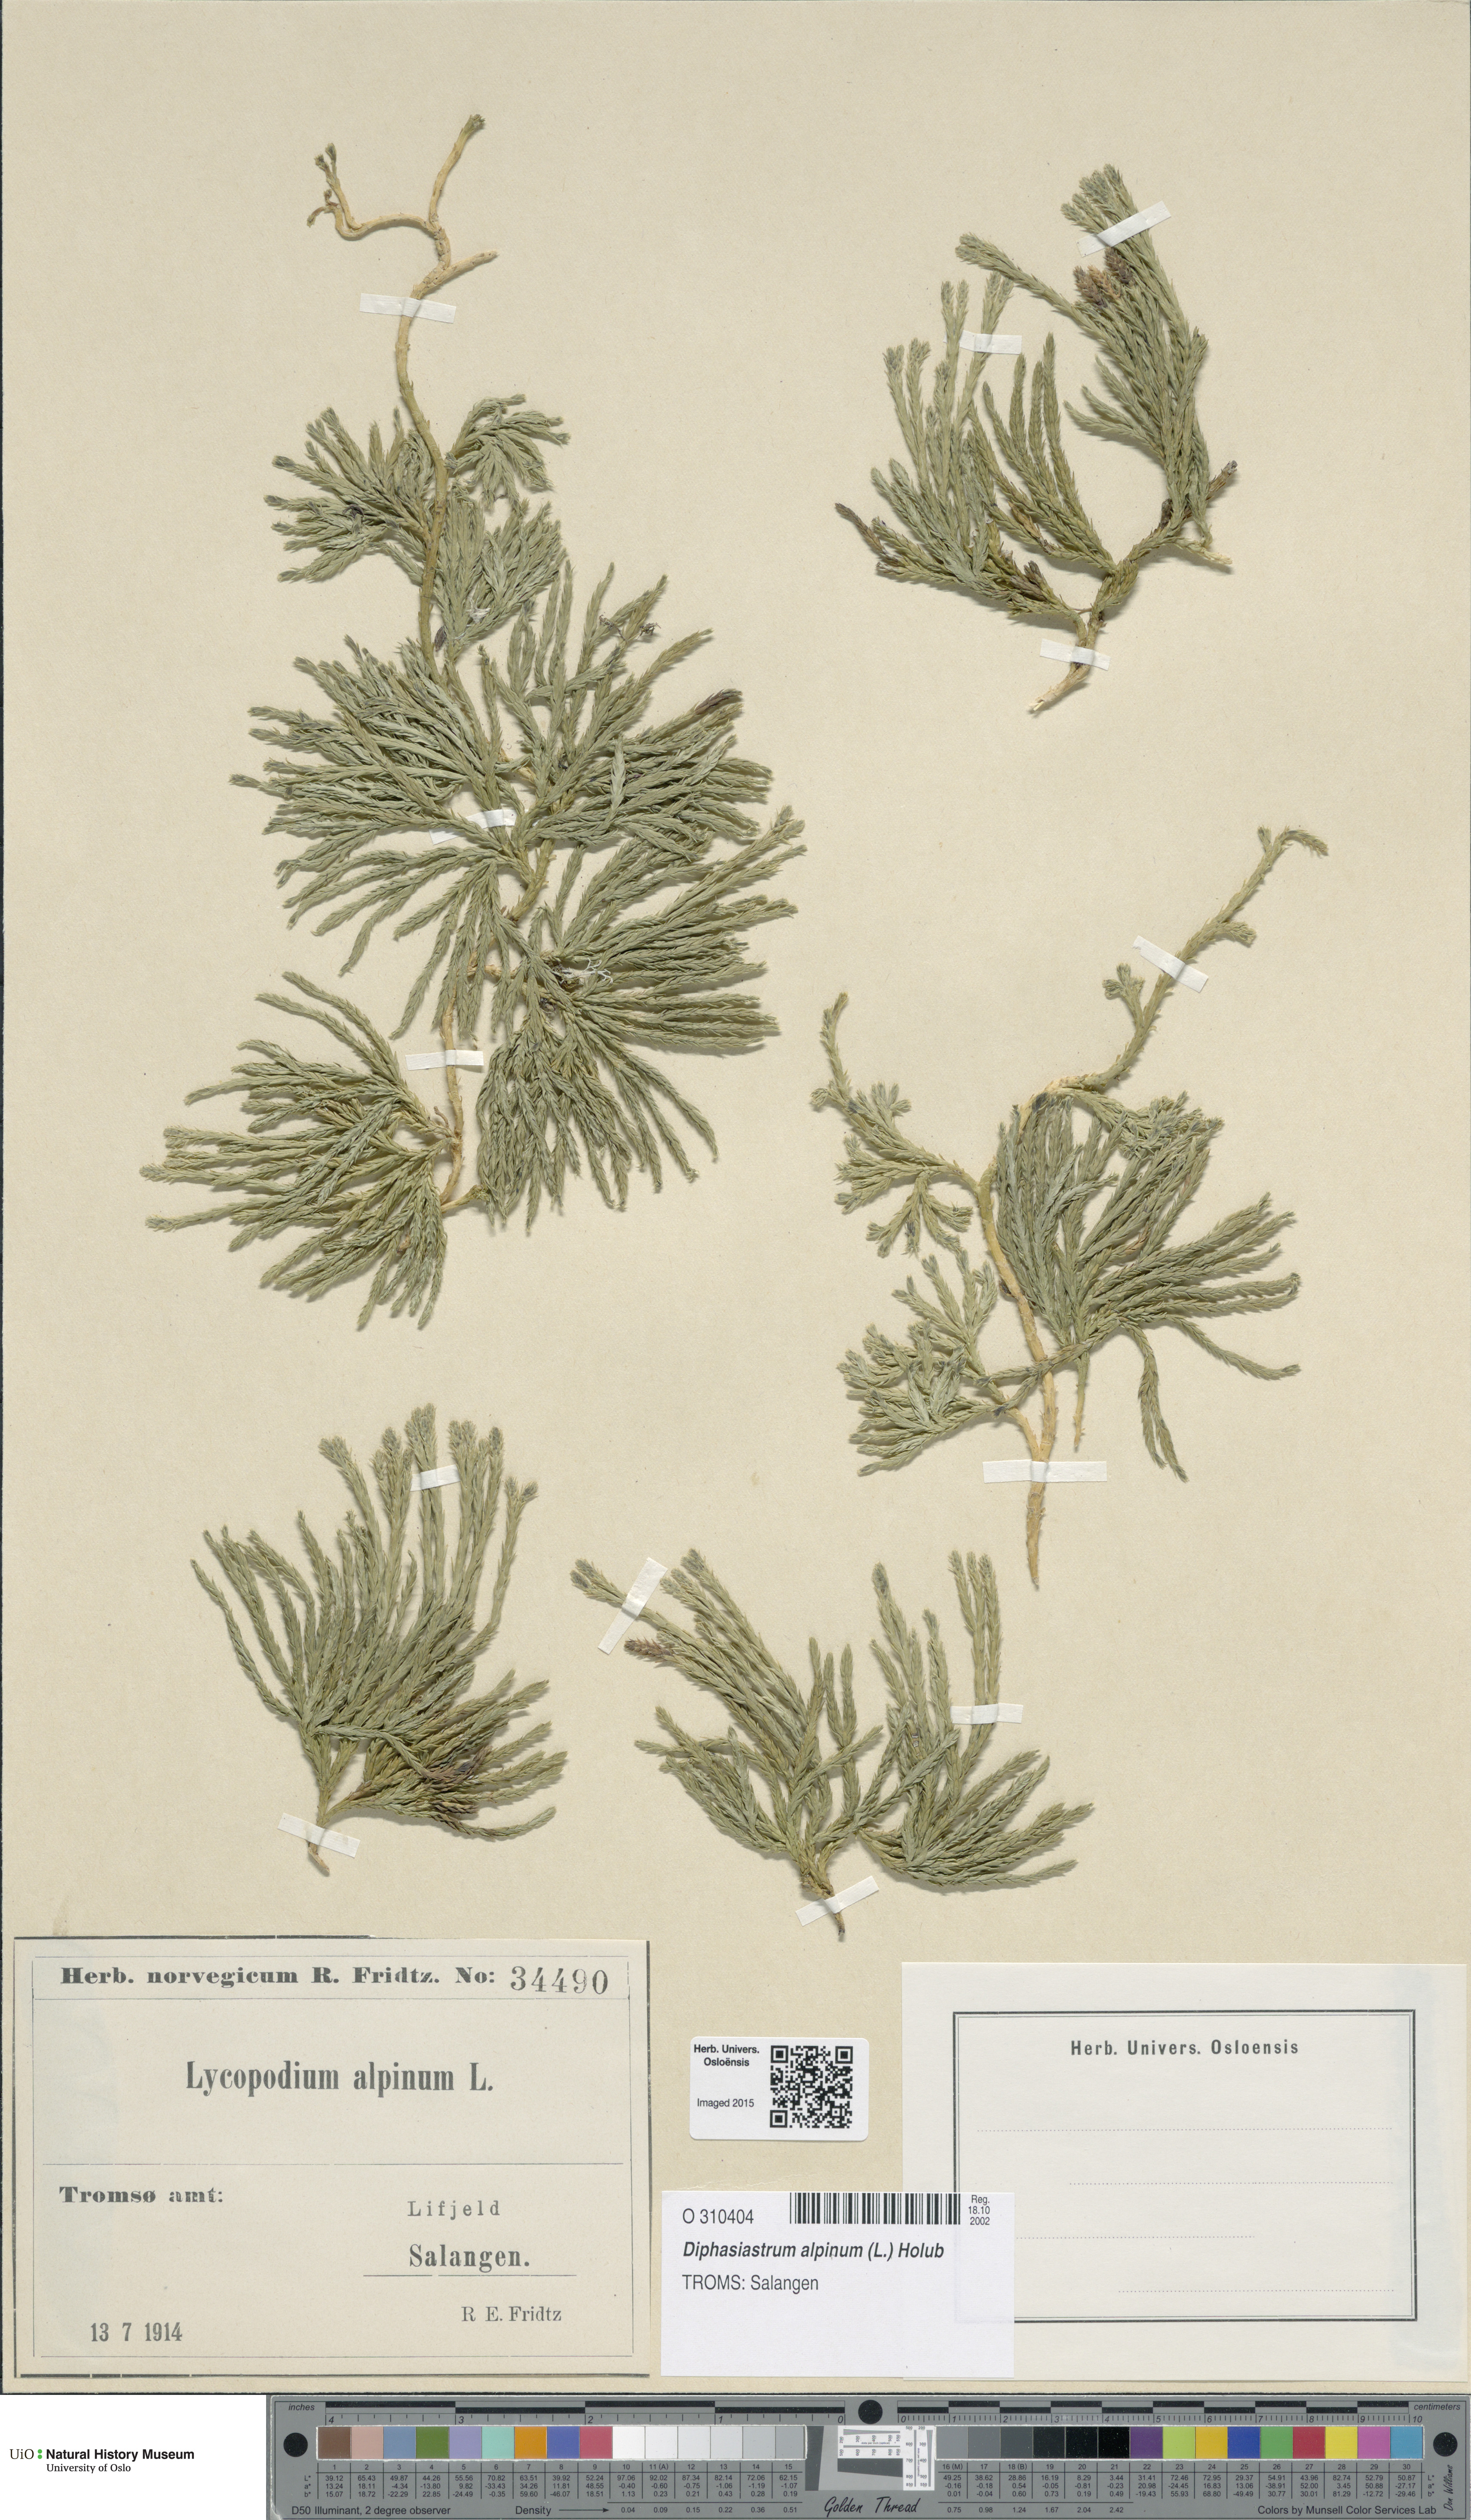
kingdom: Plantae
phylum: Tracheophyta
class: Lycopodiopsida
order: Lycopodiales
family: Lycopodiaceae
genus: Diphasiastrum
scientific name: Diphasiastrum alpinum
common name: Alpine clubmoss
